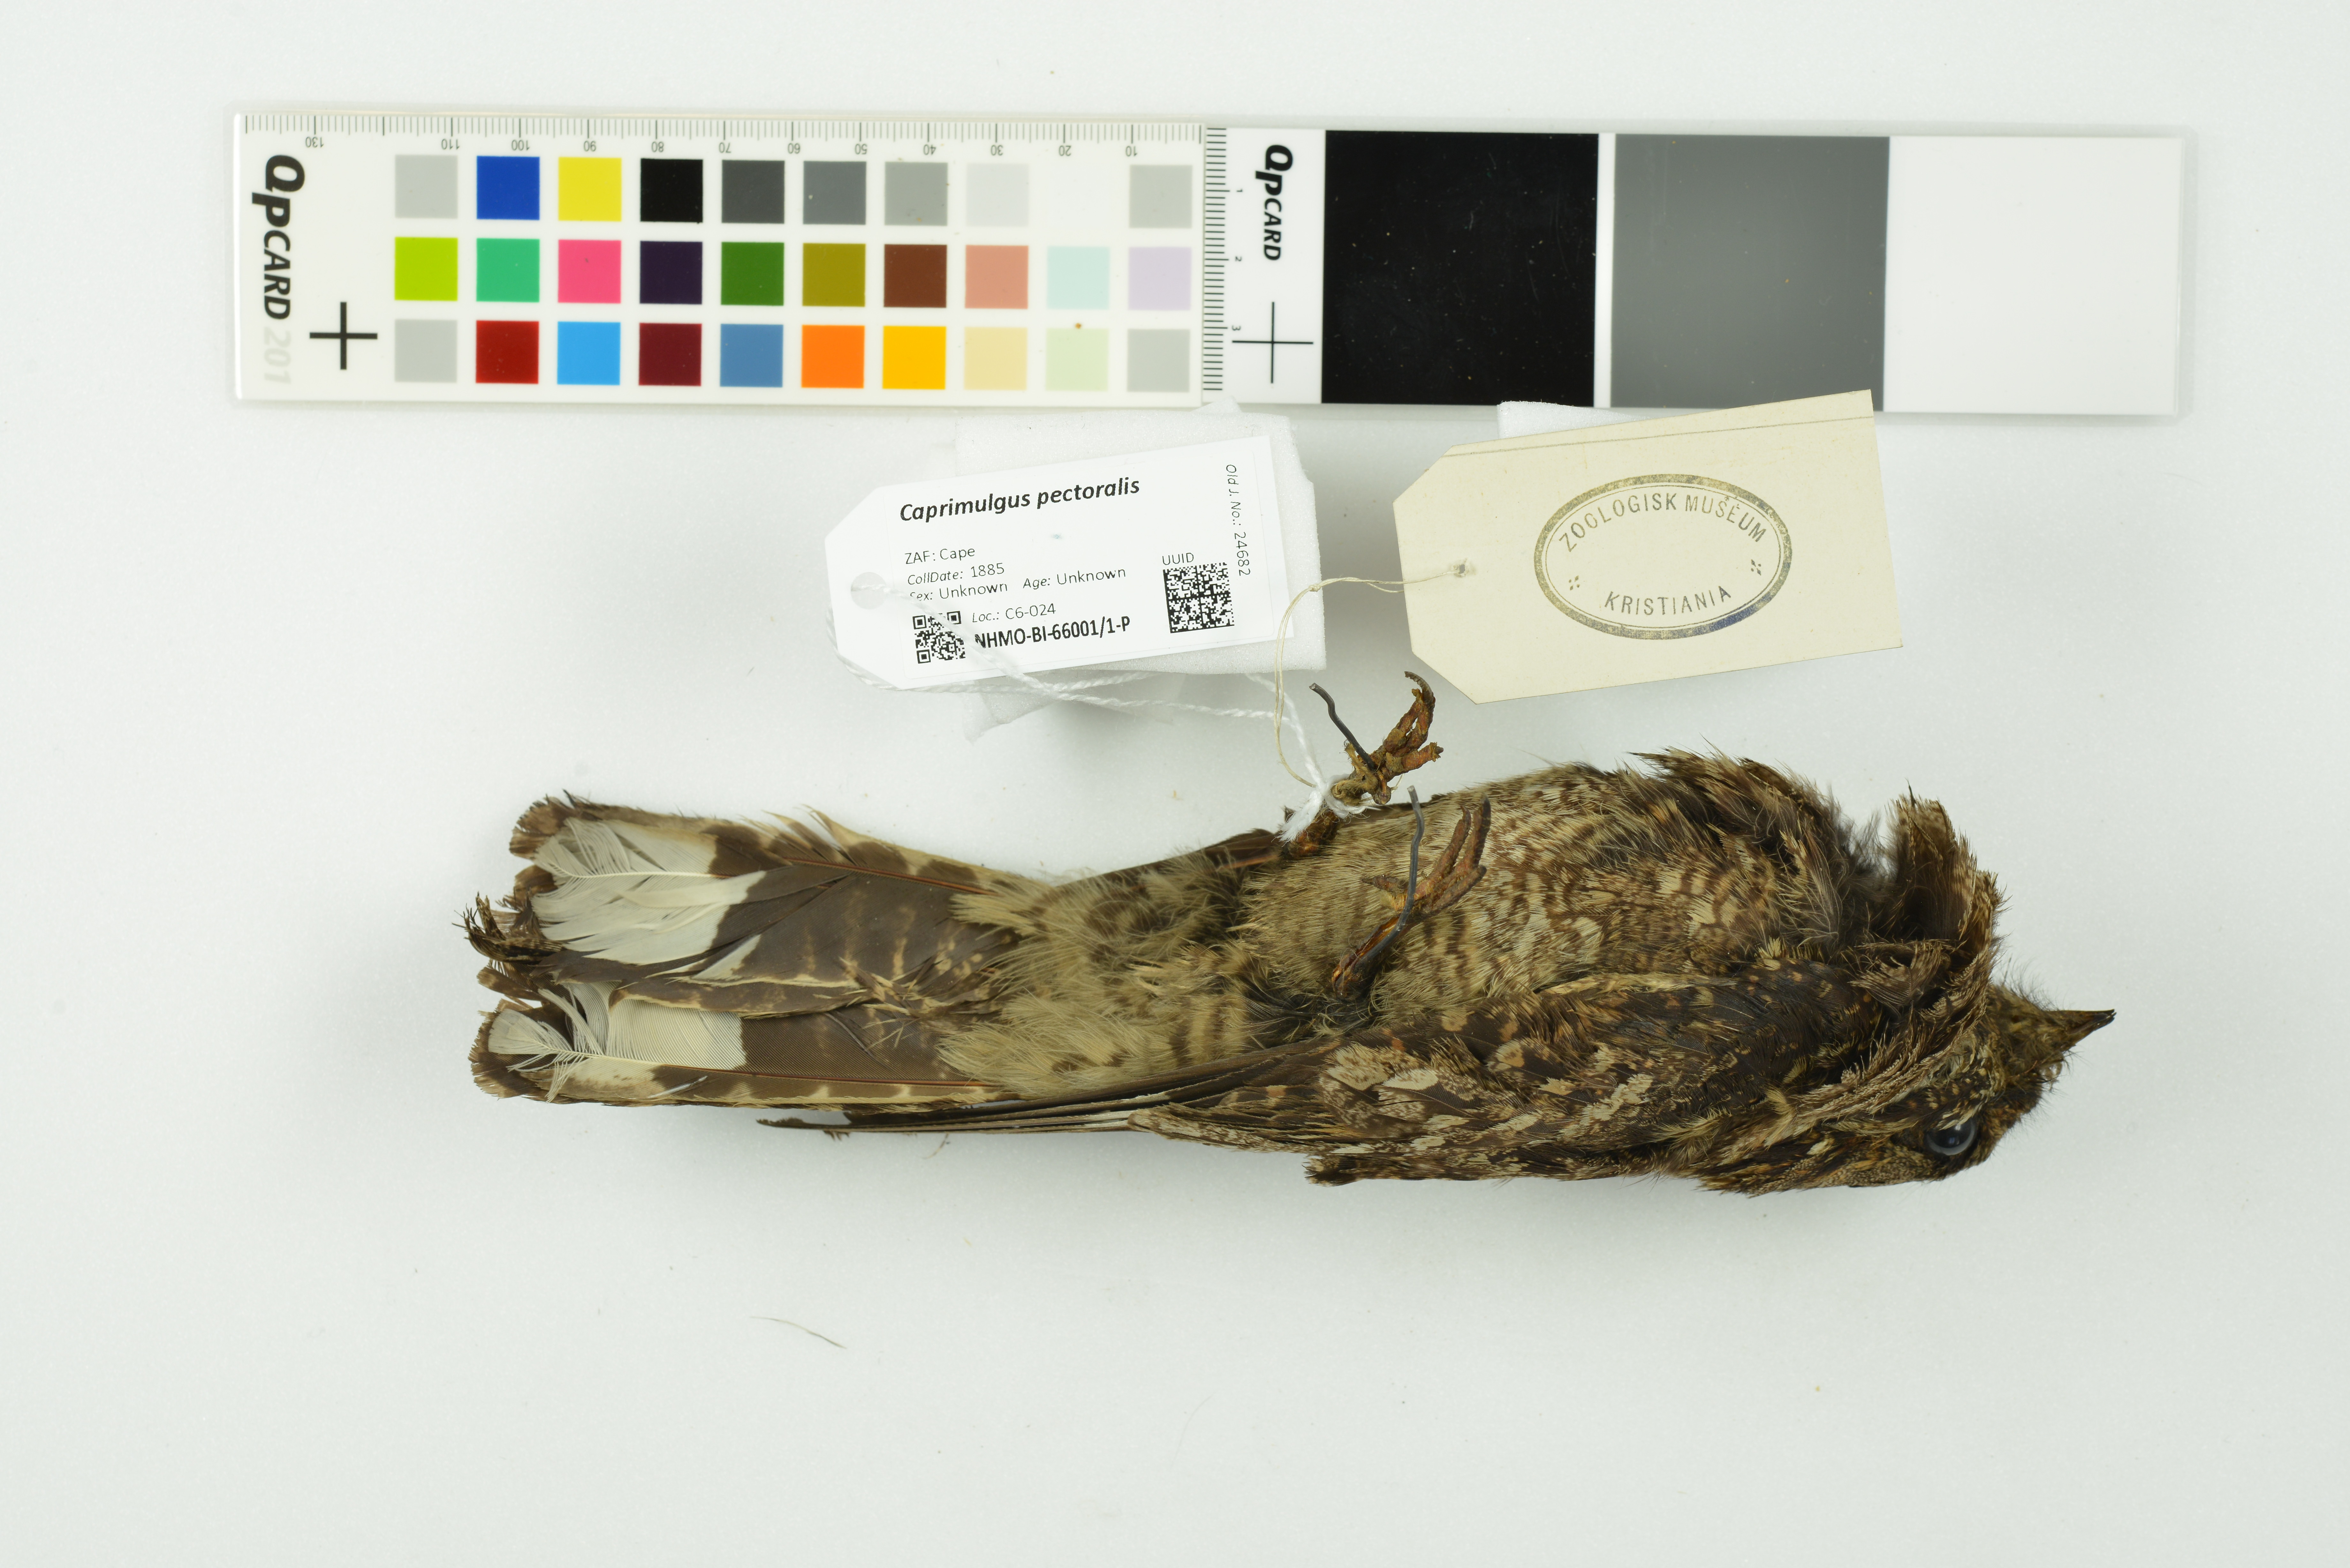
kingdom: Animalia
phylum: Chordata
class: Aves
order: Caprimulgiformes
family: Caprimulgidae
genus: Caprimulgus
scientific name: Caprimulgus pectoralis
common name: Fiery-necked nightjar
